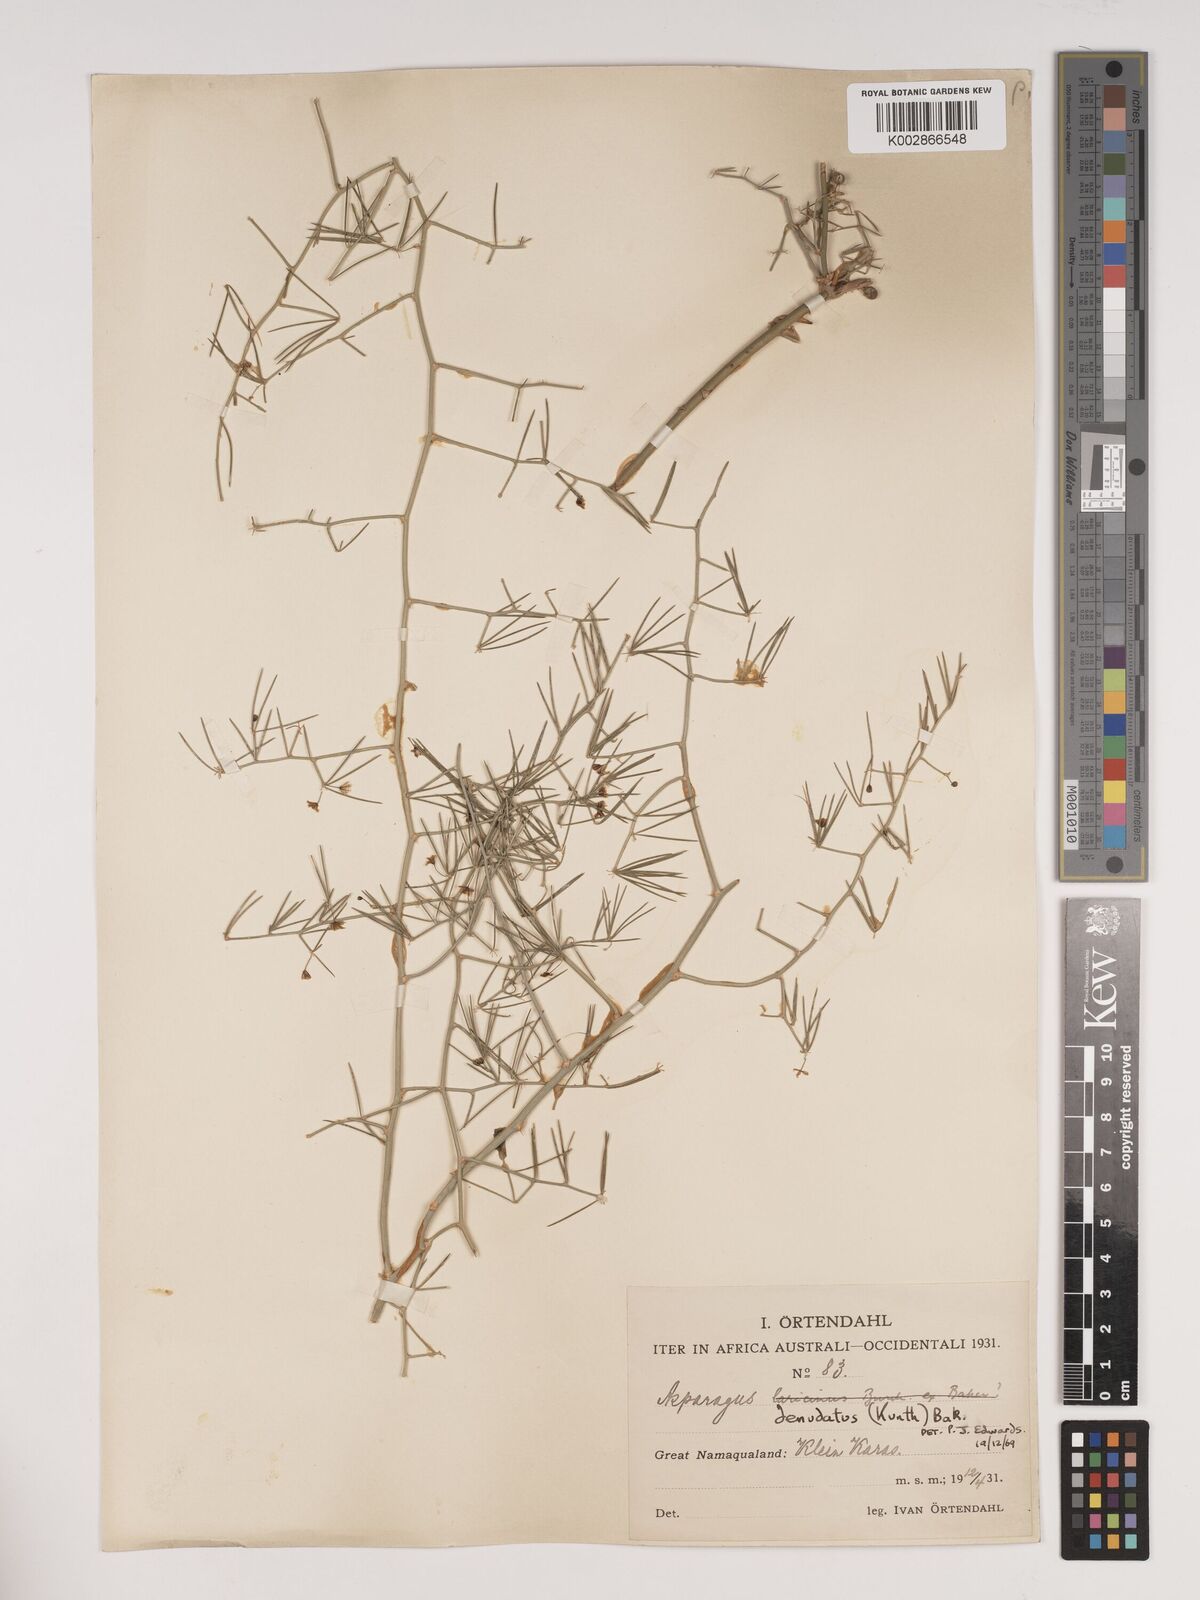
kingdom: Plantae
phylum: Tracheophyta
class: Liliopsida
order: Asparagales
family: Asparagaceae
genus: Asparagus
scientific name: Asparagus denudatus
